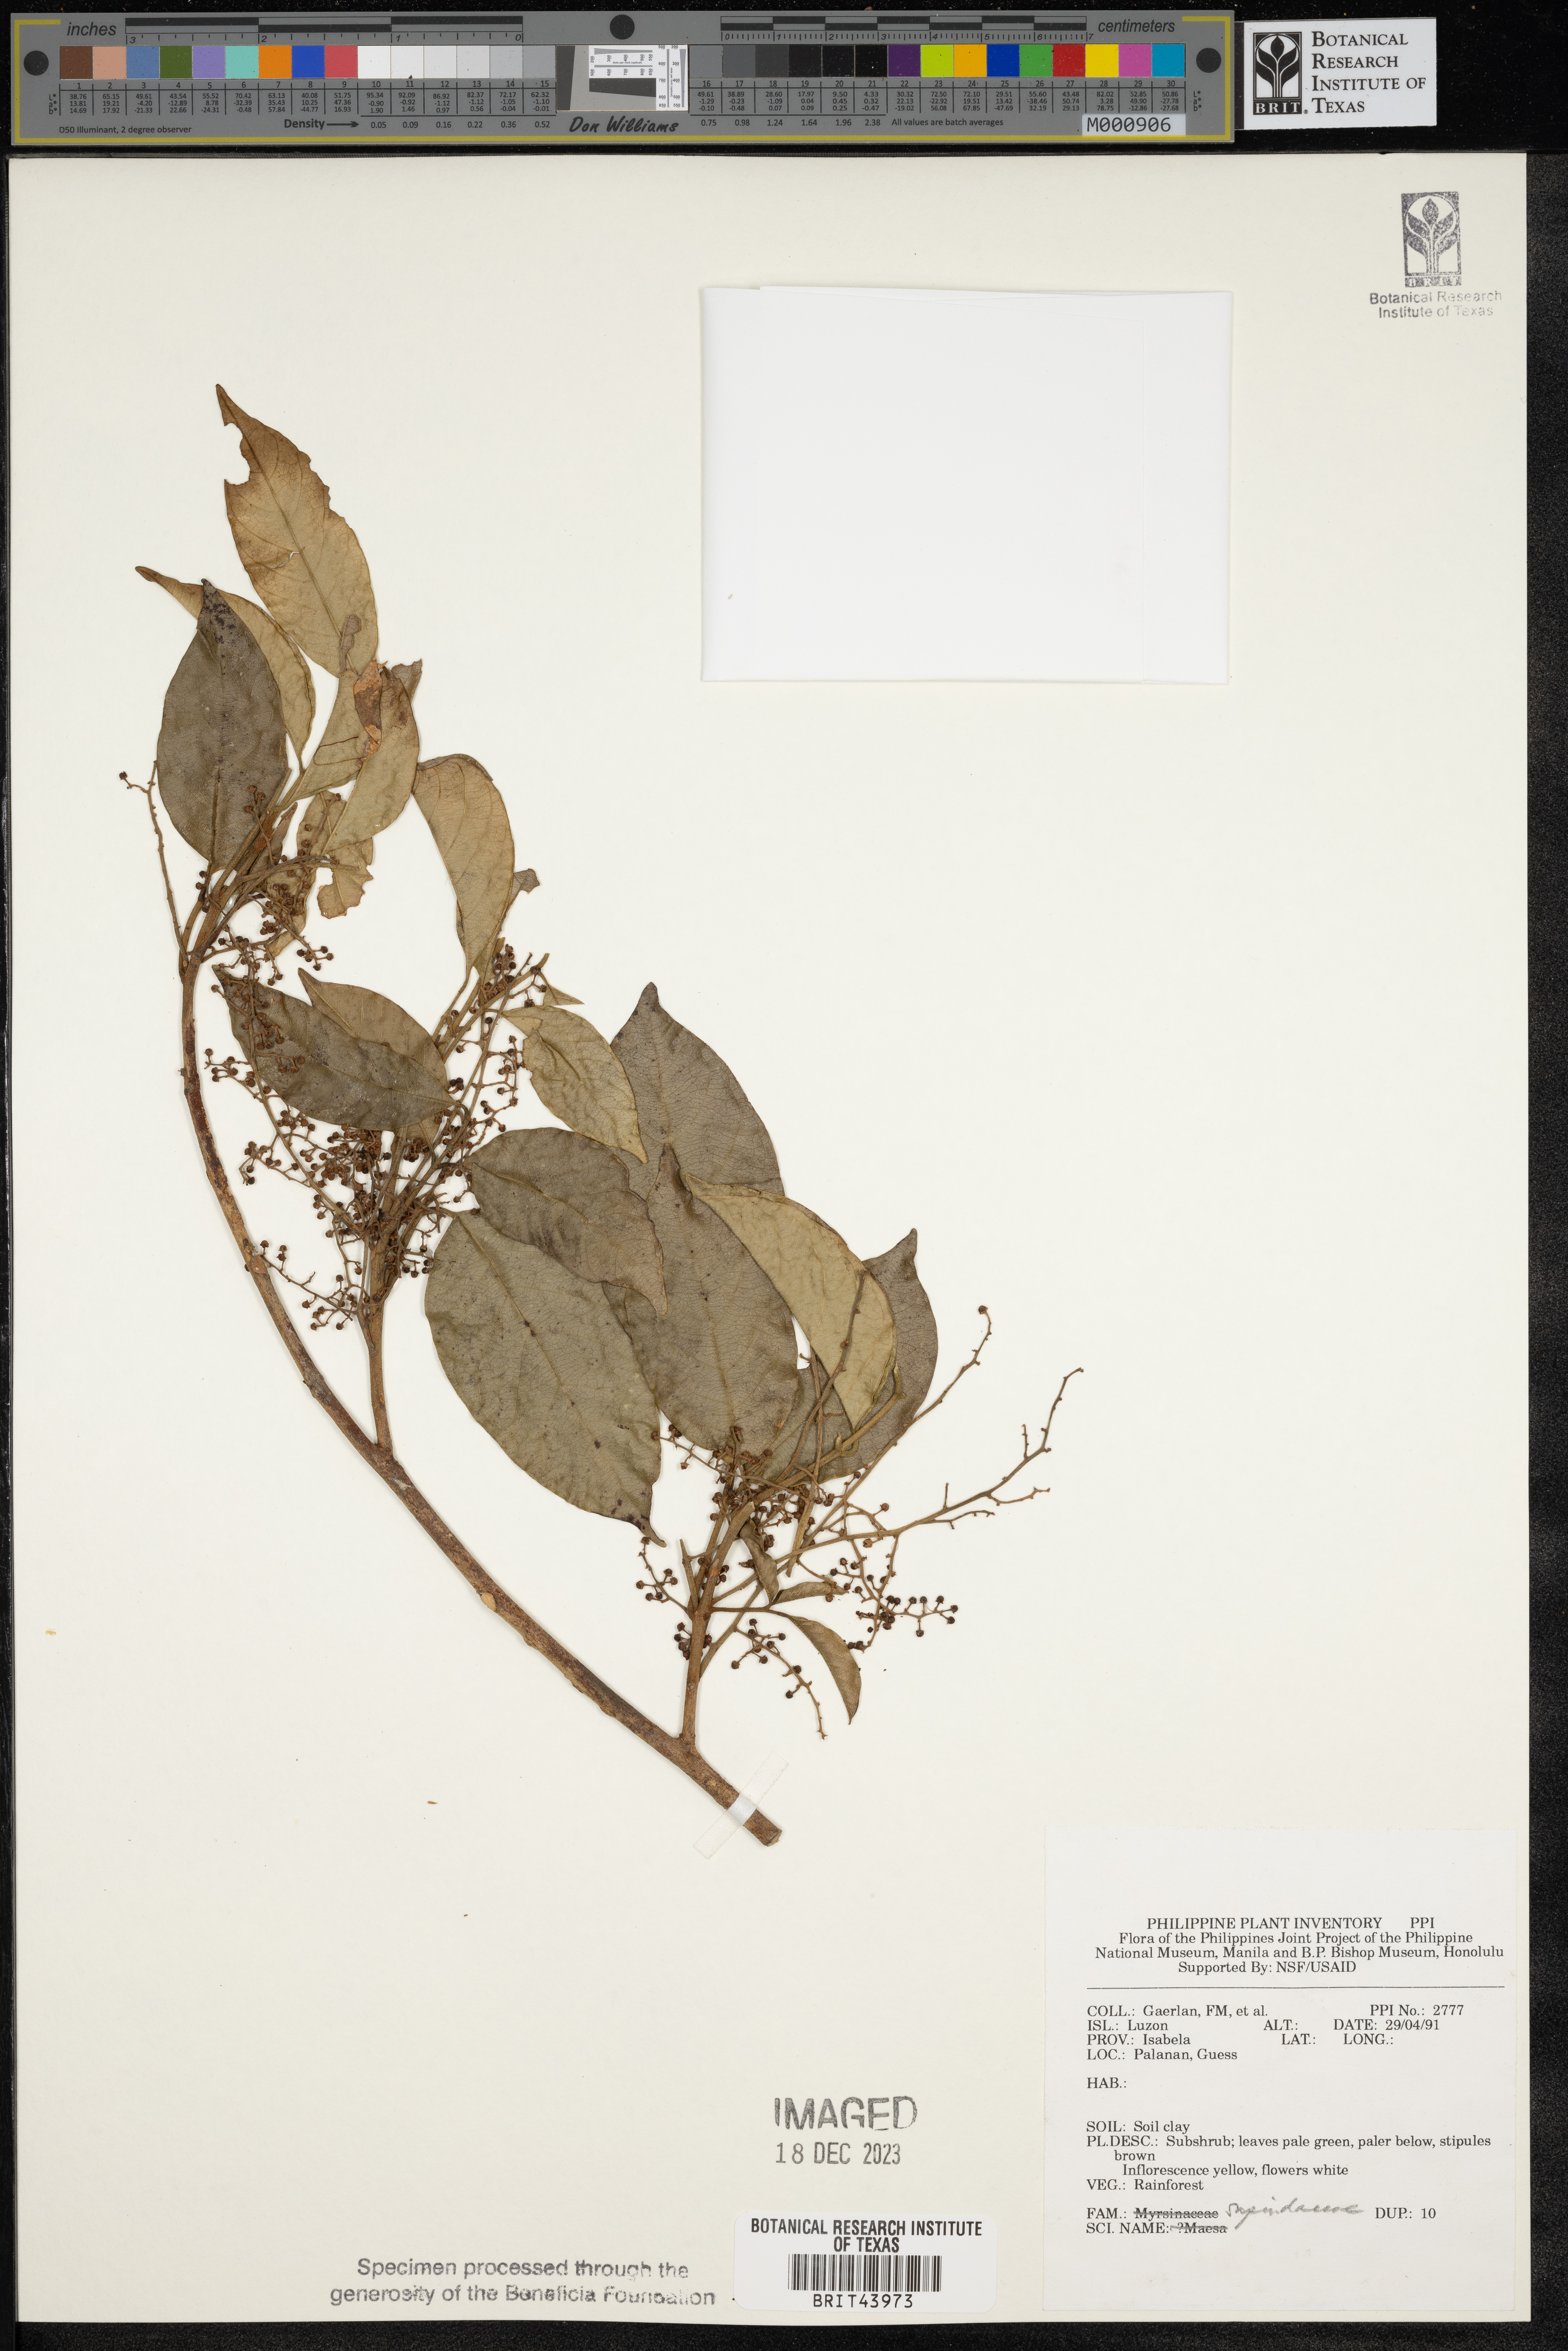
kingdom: Plantae
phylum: Tracheophyta
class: Magnoliopsida
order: Sapindales
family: Sapindaceae
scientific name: Sapindaceae
